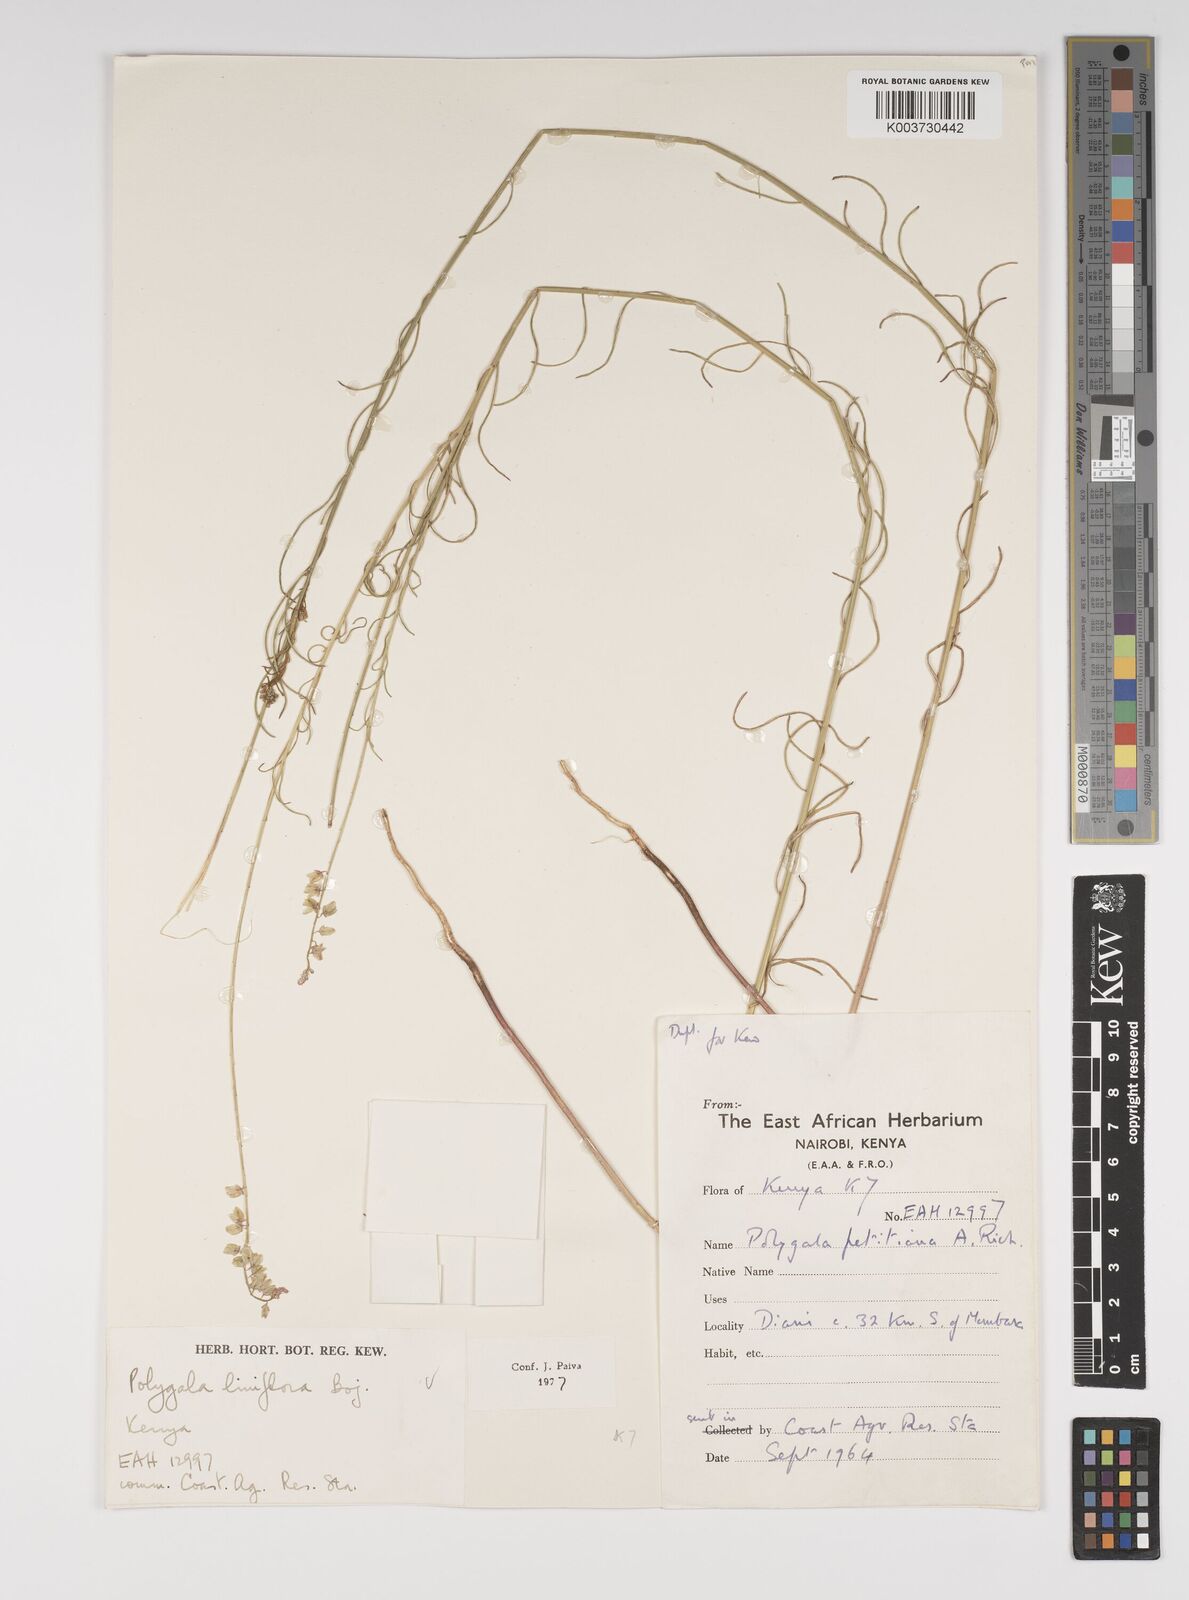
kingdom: Plantae
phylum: Tracheophyta
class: Magnoliopsida
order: Fabales
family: Polygalaceae
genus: Polygala
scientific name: Polygala conosperma
